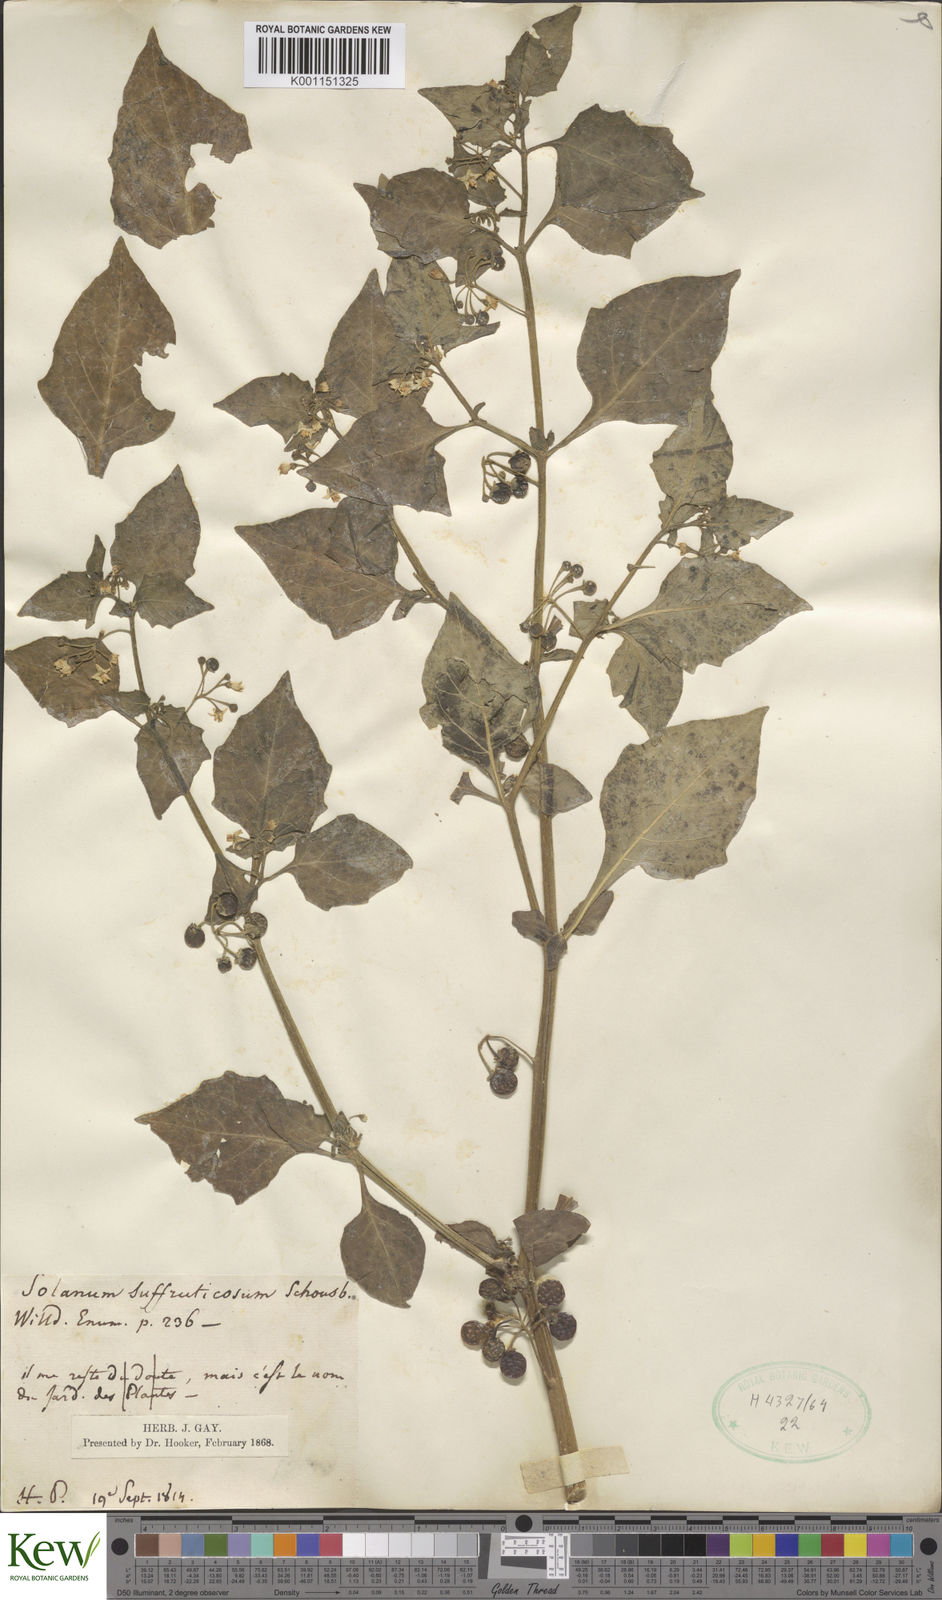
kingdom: Plantae
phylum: Tracheophyta
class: Magnoliopsida
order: Solanales
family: Solanaceae
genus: Solanum
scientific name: Solanum nigrum
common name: Black nightshade
